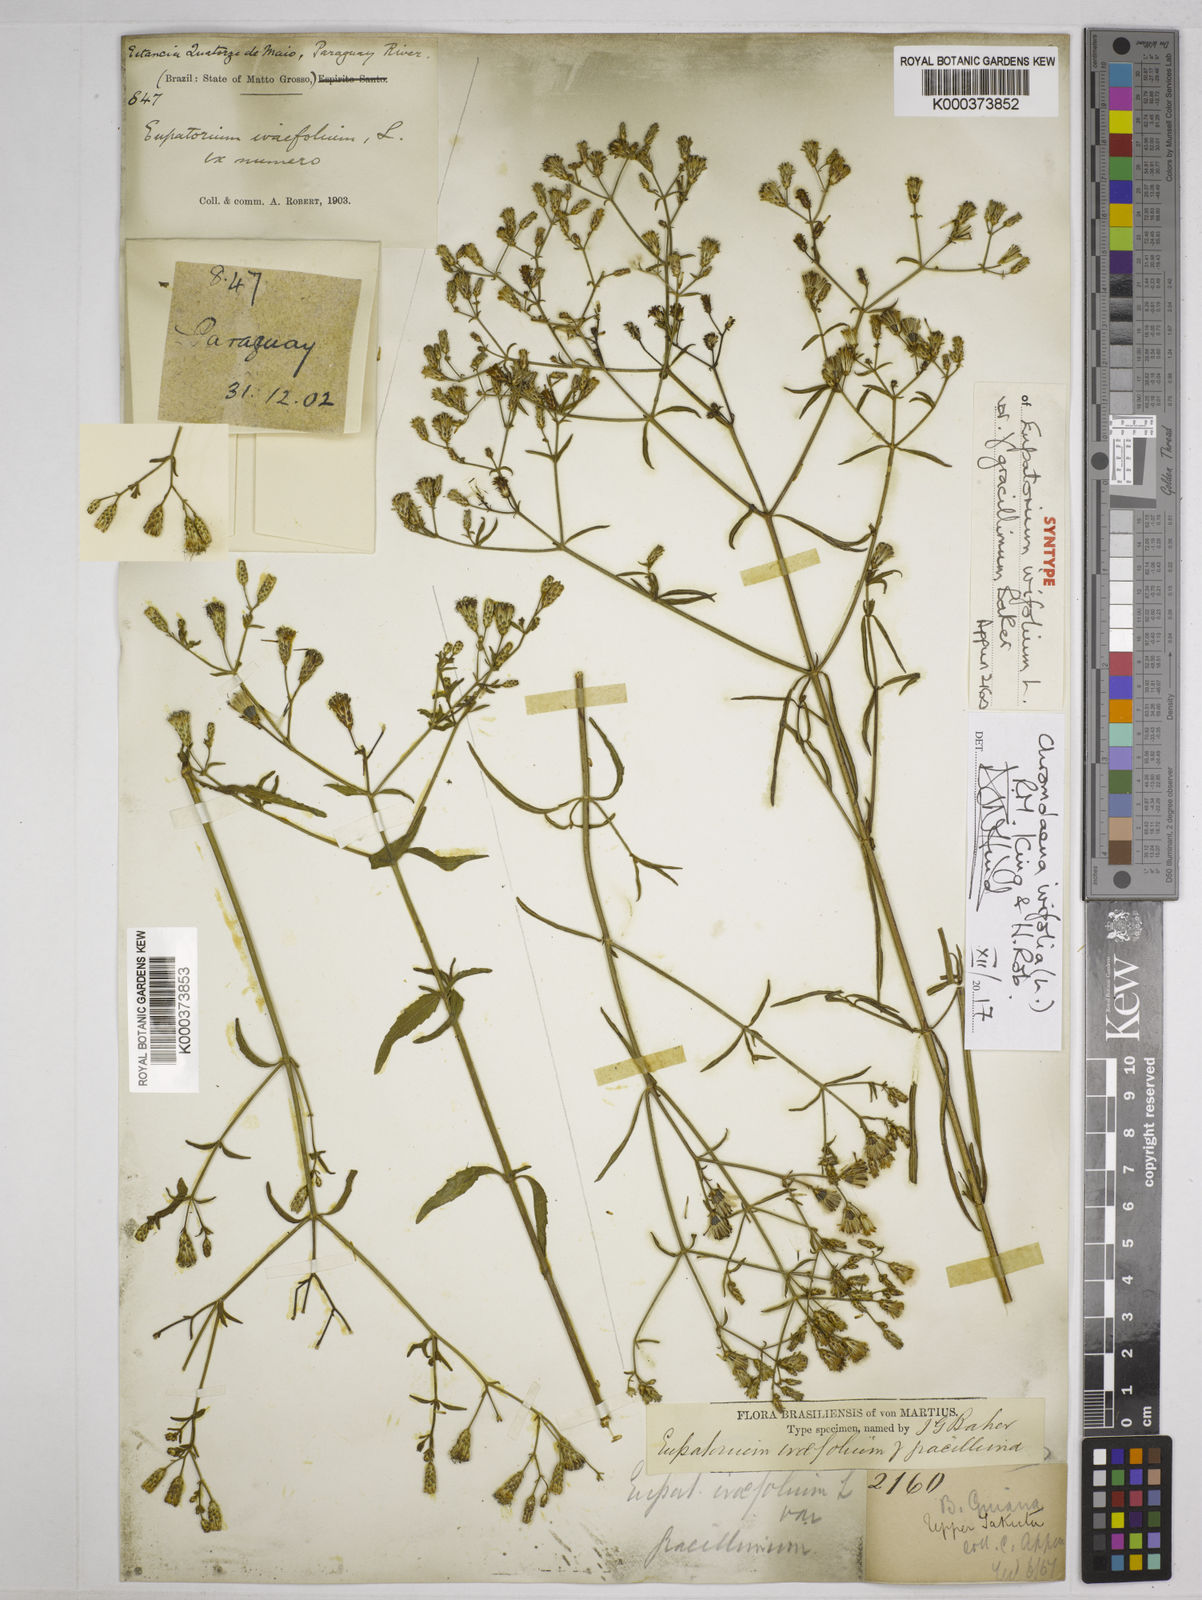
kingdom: Plantae
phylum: Tracheophyta
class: Magnoliopsida
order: Asterales
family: Asteraceae
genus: Chromolaena
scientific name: Chromolaena ivifolia
